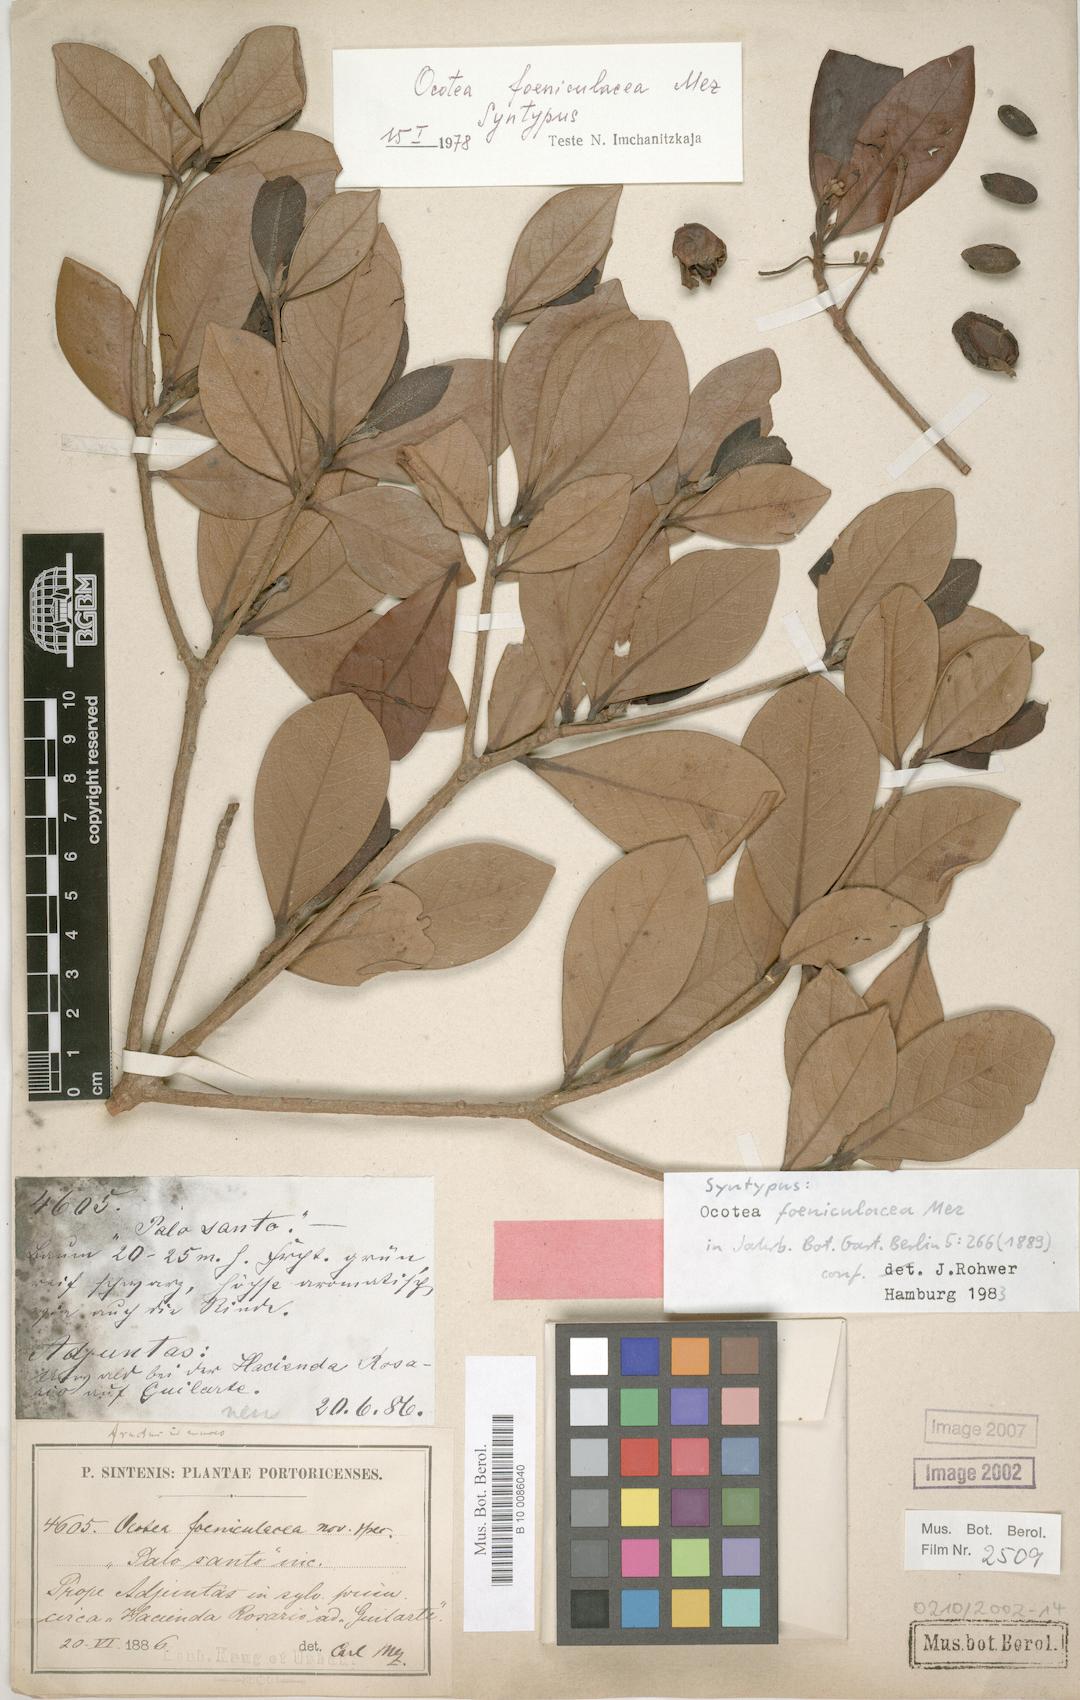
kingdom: Plantae
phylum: Tracheophyta
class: Magnoliopsida
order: Laurales
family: Lauraceae
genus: Ocotea
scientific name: Ocotea foeniculacea
